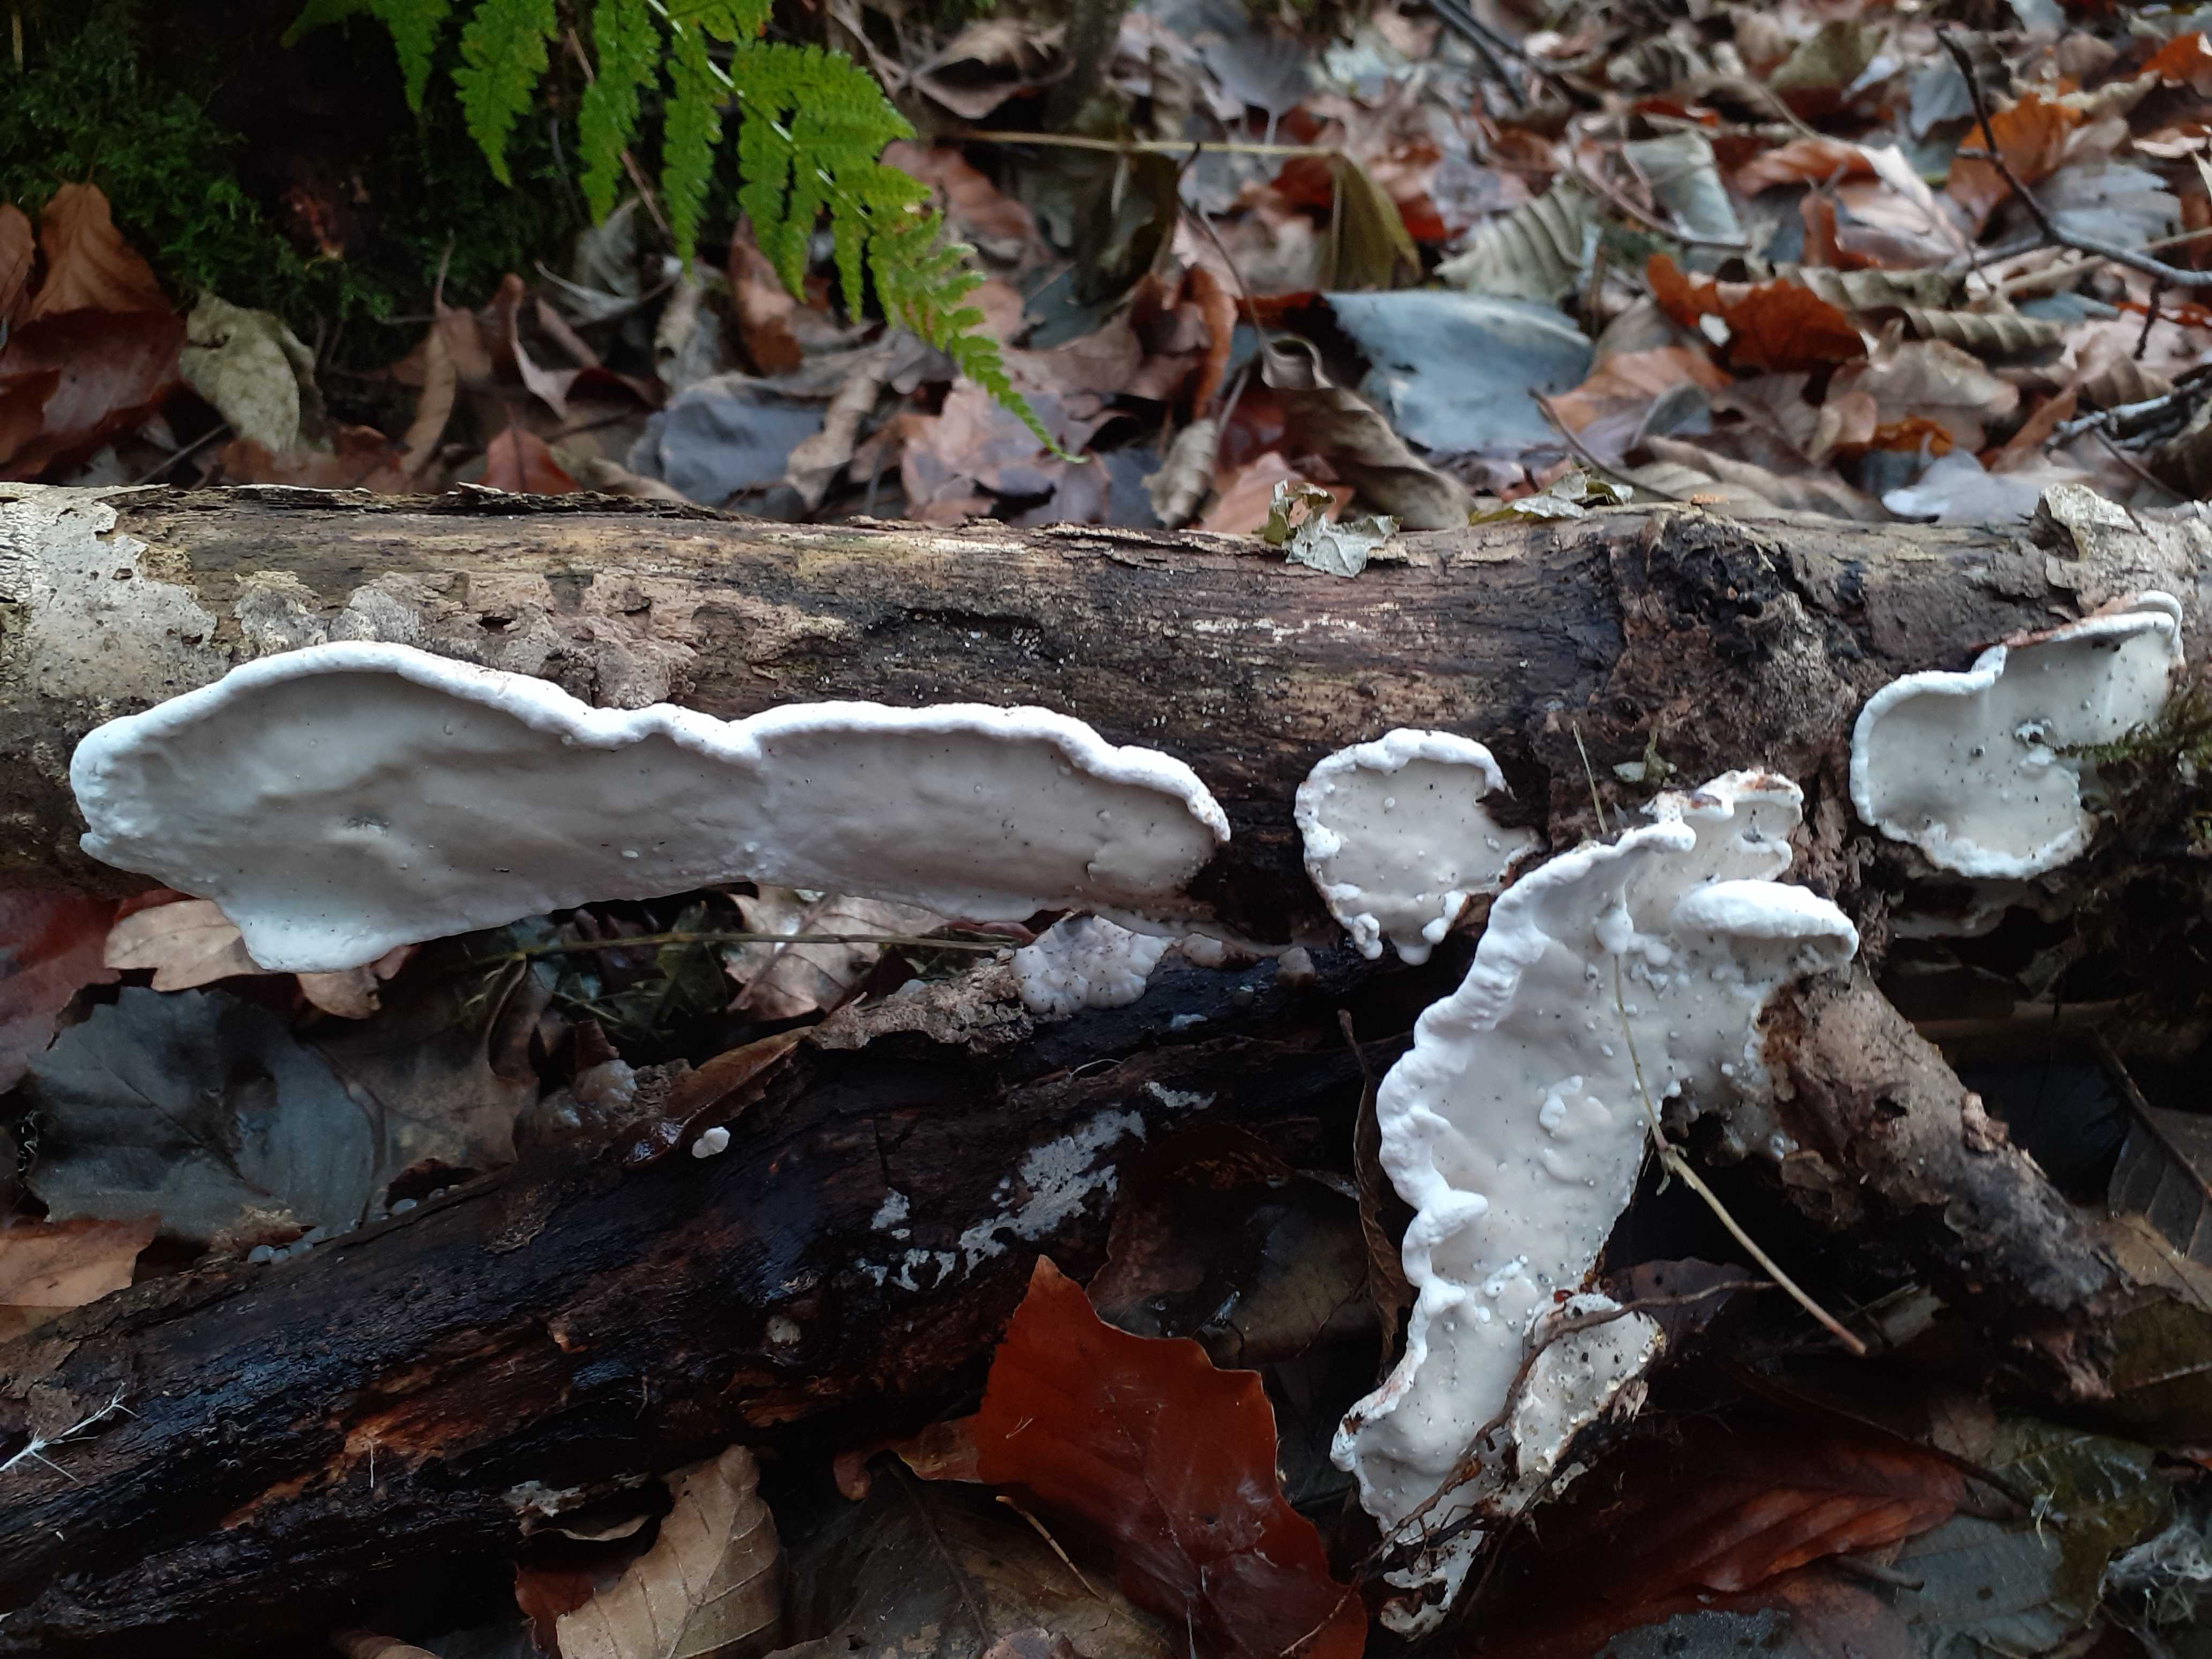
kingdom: Fungi
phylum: Basidiomycota
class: Agaricomycetes
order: Polyporales
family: Incrustoporiaceae
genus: Skeletocutis
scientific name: Skeletocutis nemoralis
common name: stor krystalporesvamp
